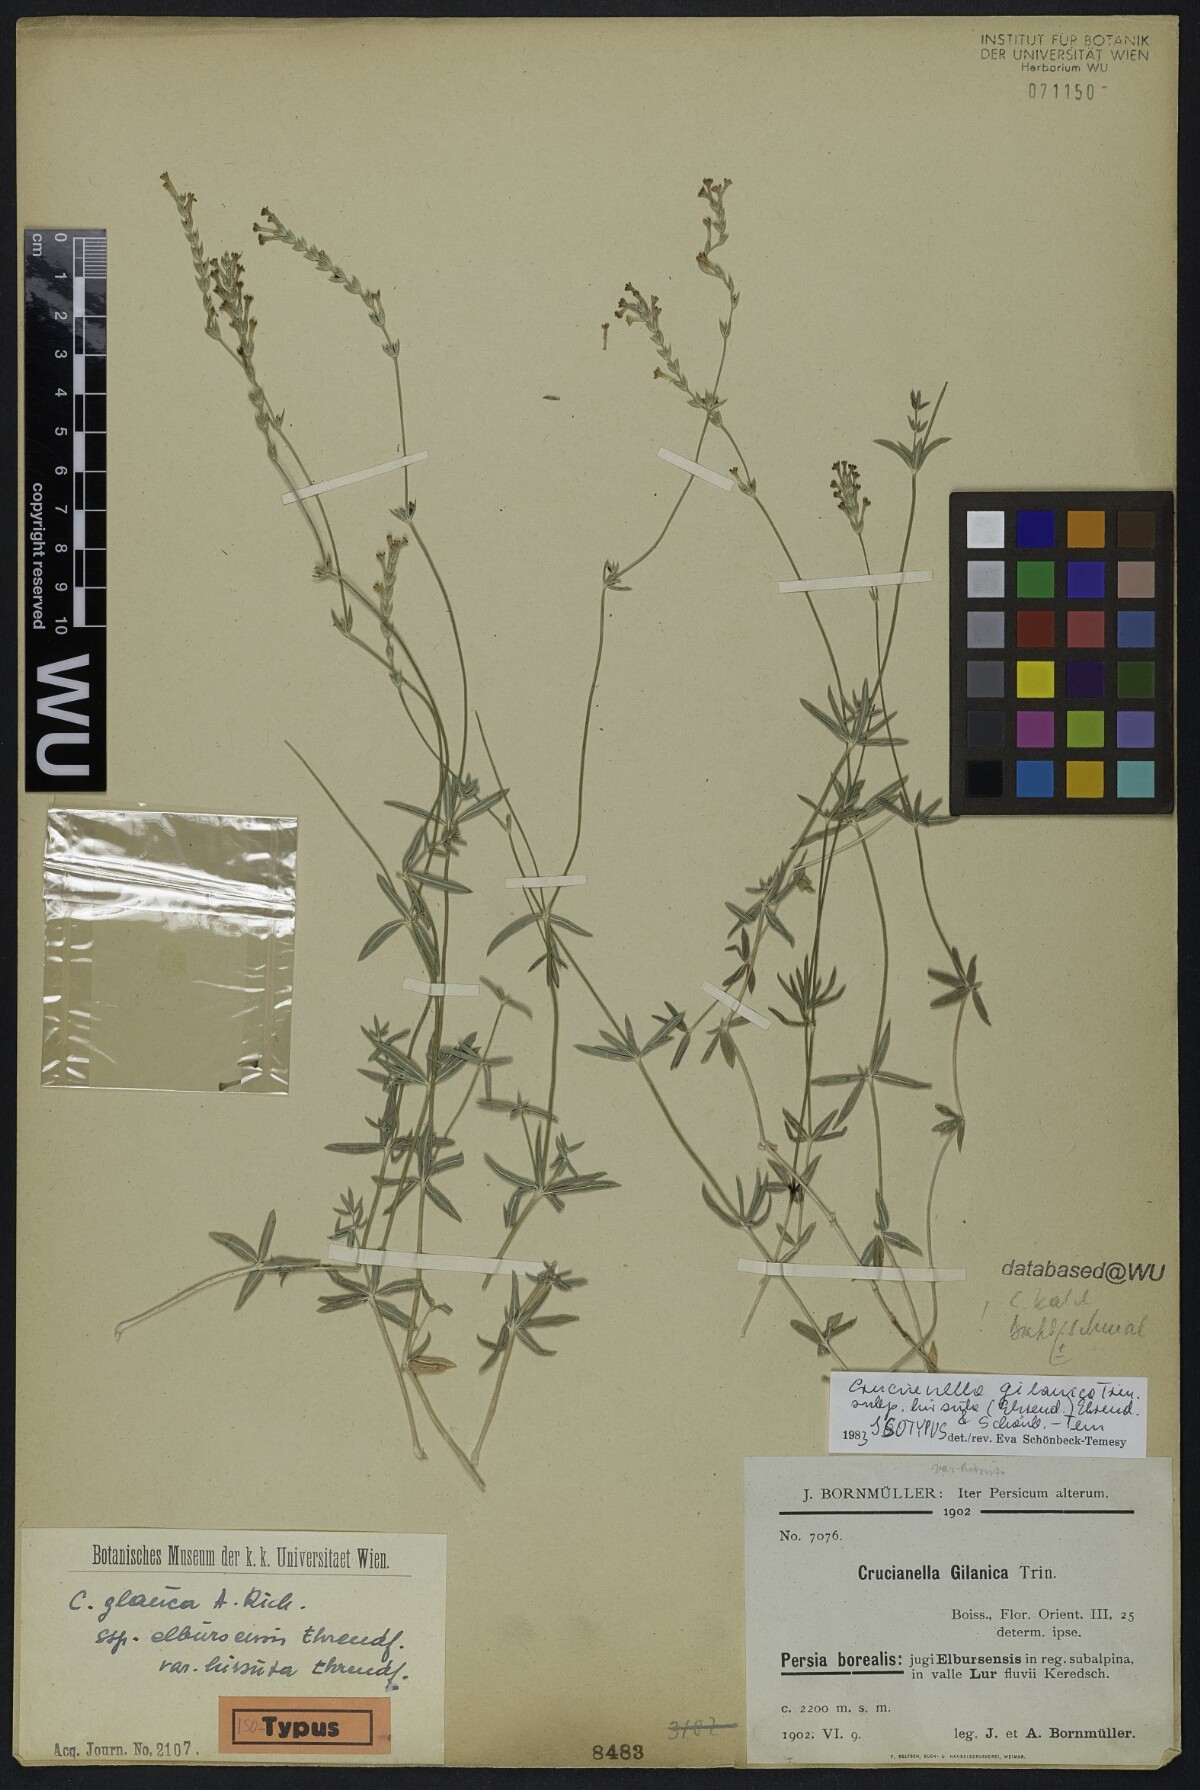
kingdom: Plantae
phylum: Tracheophyta
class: Magnoliopsida
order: Gentianales
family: Rubiaceae
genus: Crucianella
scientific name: Crucianella gilanica
